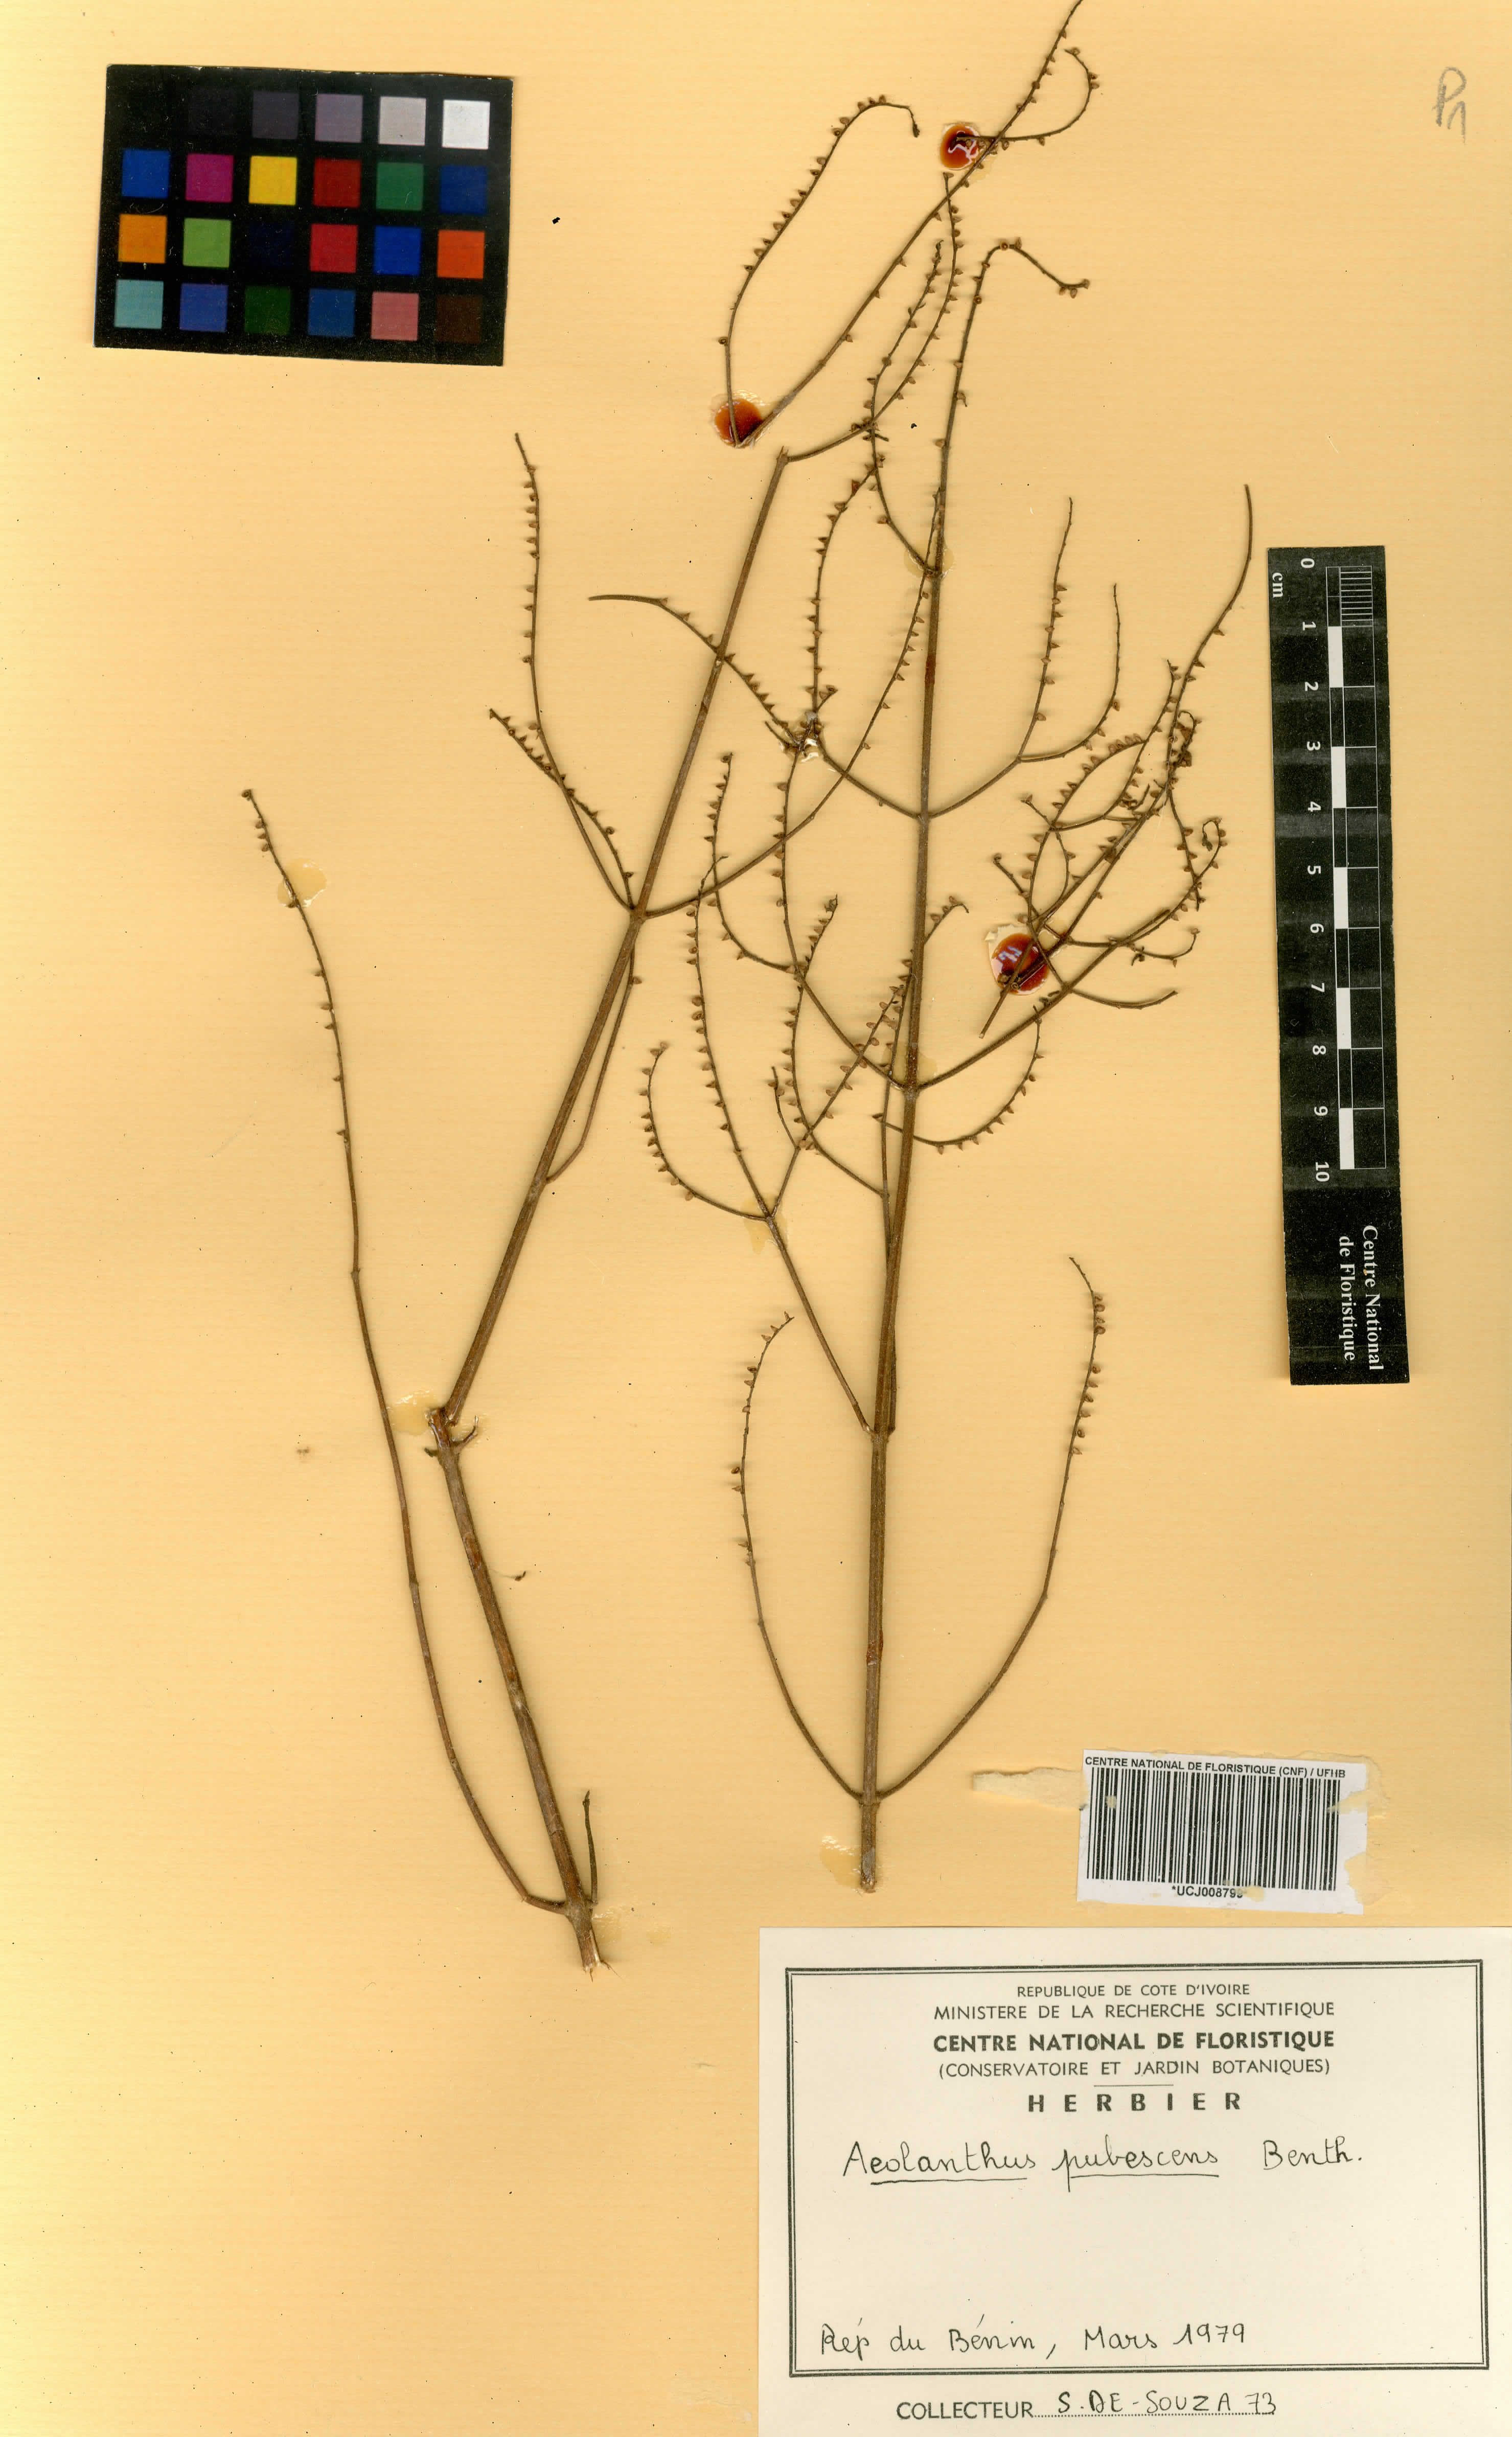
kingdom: Plantae
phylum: Tracheophyta
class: Magnoliopsida
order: Lamiales
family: Lamiaceae
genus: Aeollanthus
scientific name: Aeollanthus pubescens
